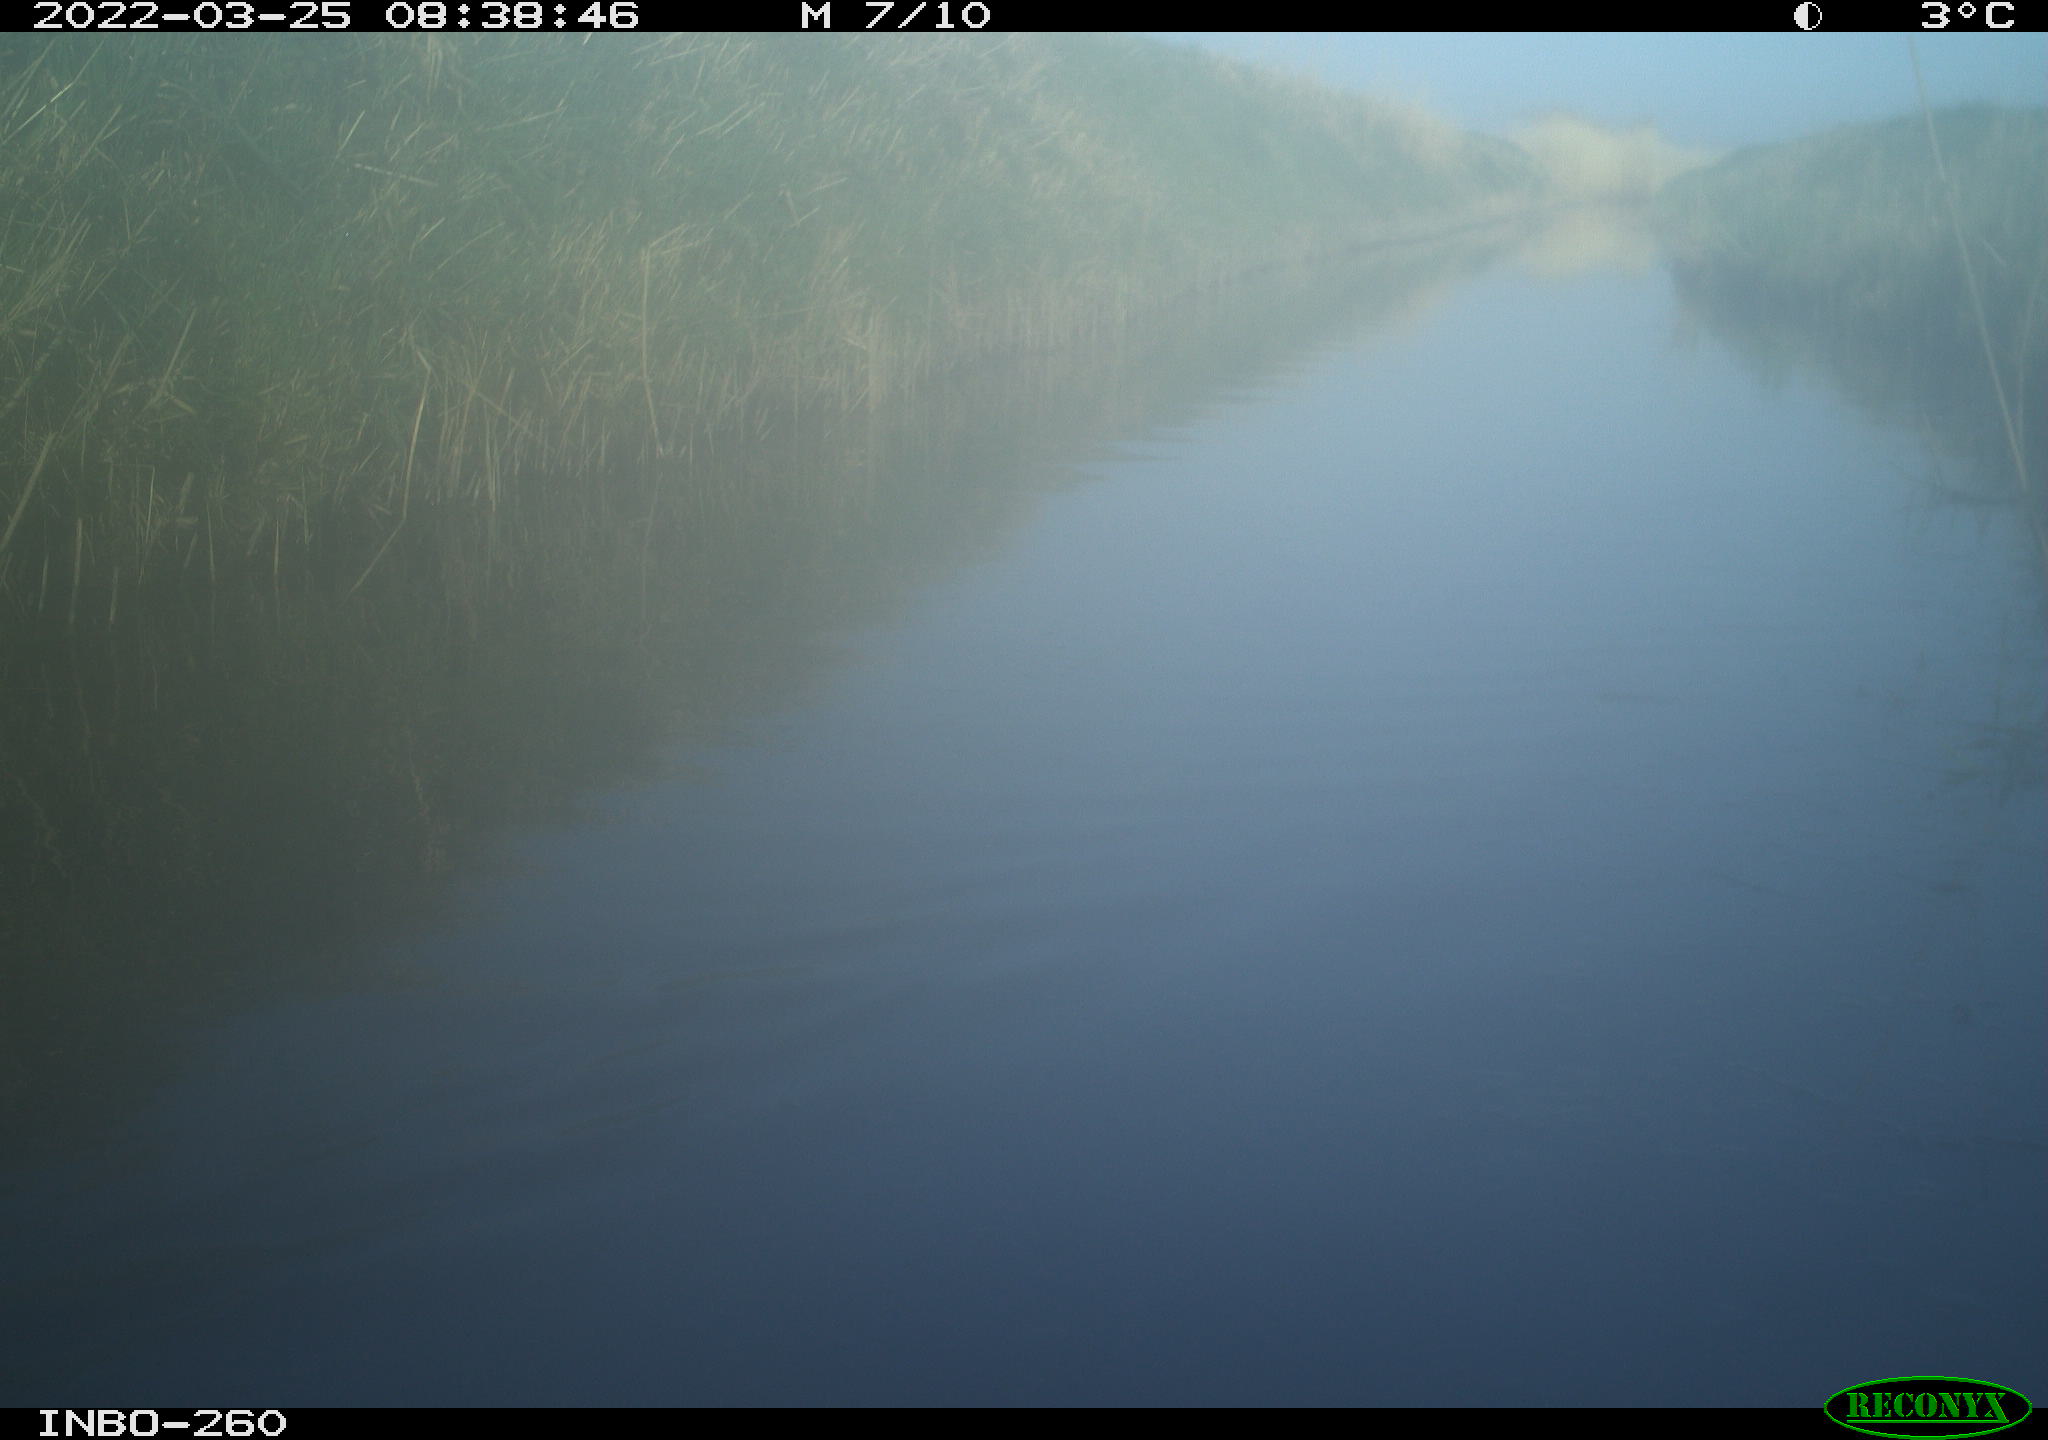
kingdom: Animalia
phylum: Chordata
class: Aves
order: Gruiformes
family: Rallidae
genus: Fulica
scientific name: Fulica atra
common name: Eurasian coot
